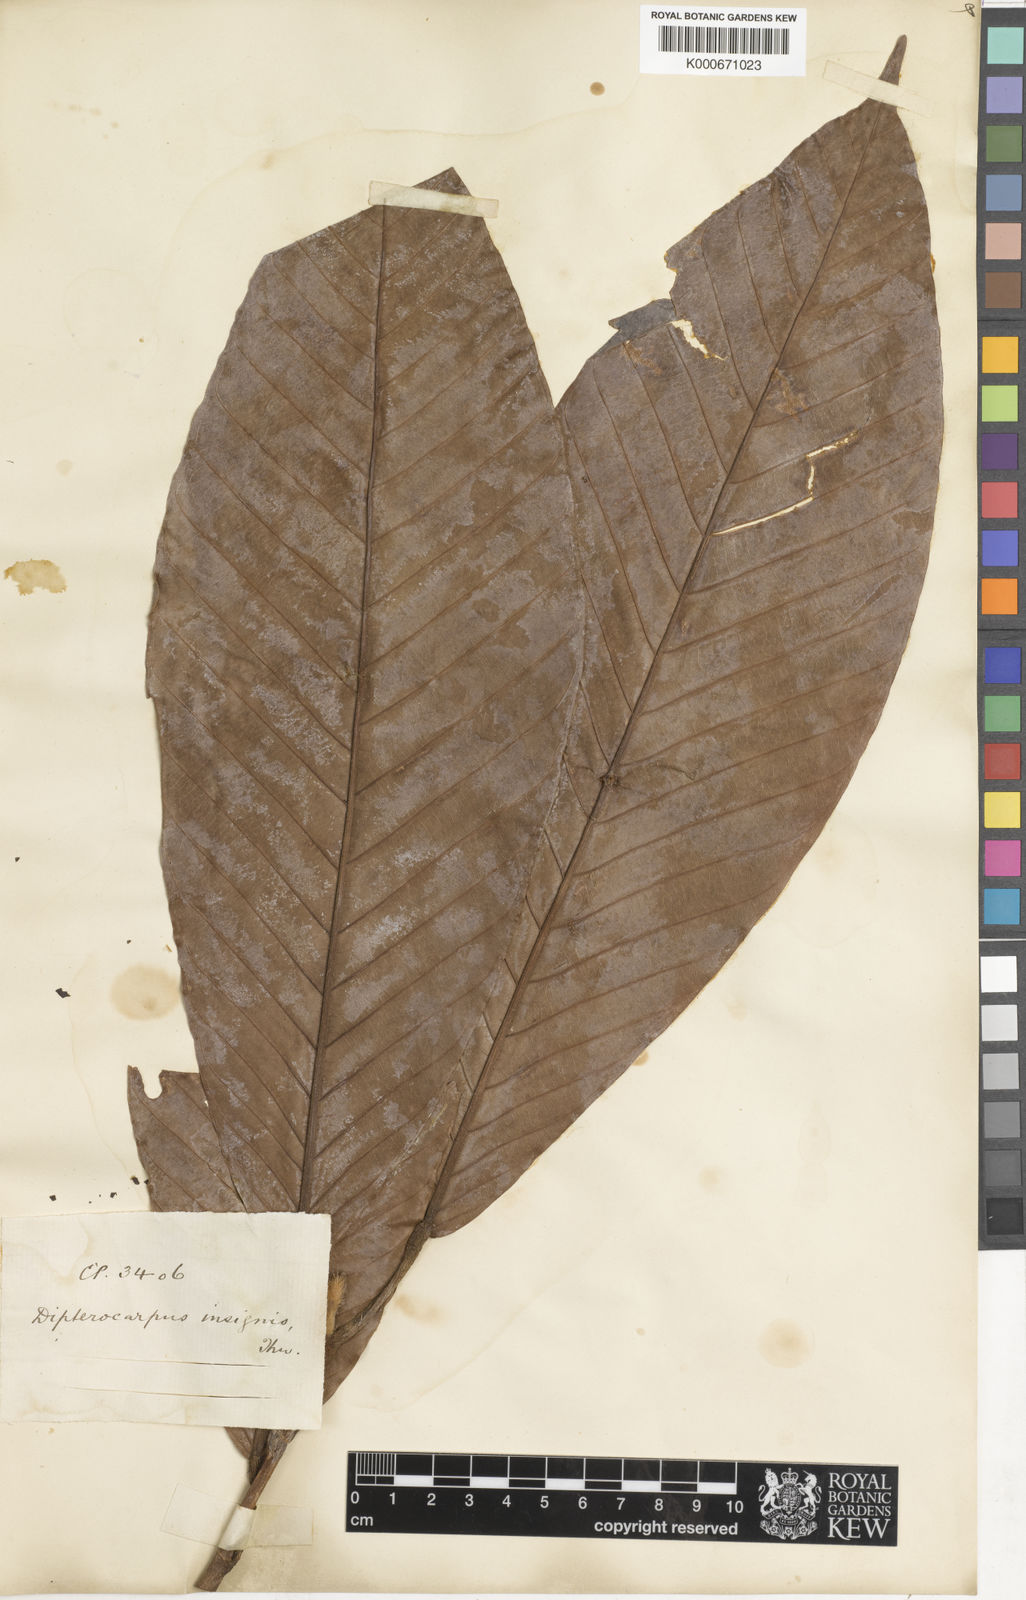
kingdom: Plantae
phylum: Tracheophyta
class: Magnoliopsida
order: Malvales
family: Dipterocarpaceae
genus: Dipterocarpus
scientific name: Dipterocarpus insignis
